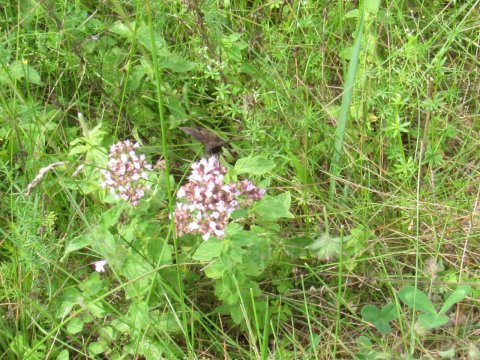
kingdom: Animalia
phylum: Arthropoda
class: Insecta
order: Lepidoptera
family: Hesperiidae
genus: Gesta
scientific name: Gesta
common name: Wild Indigo Duskywing
